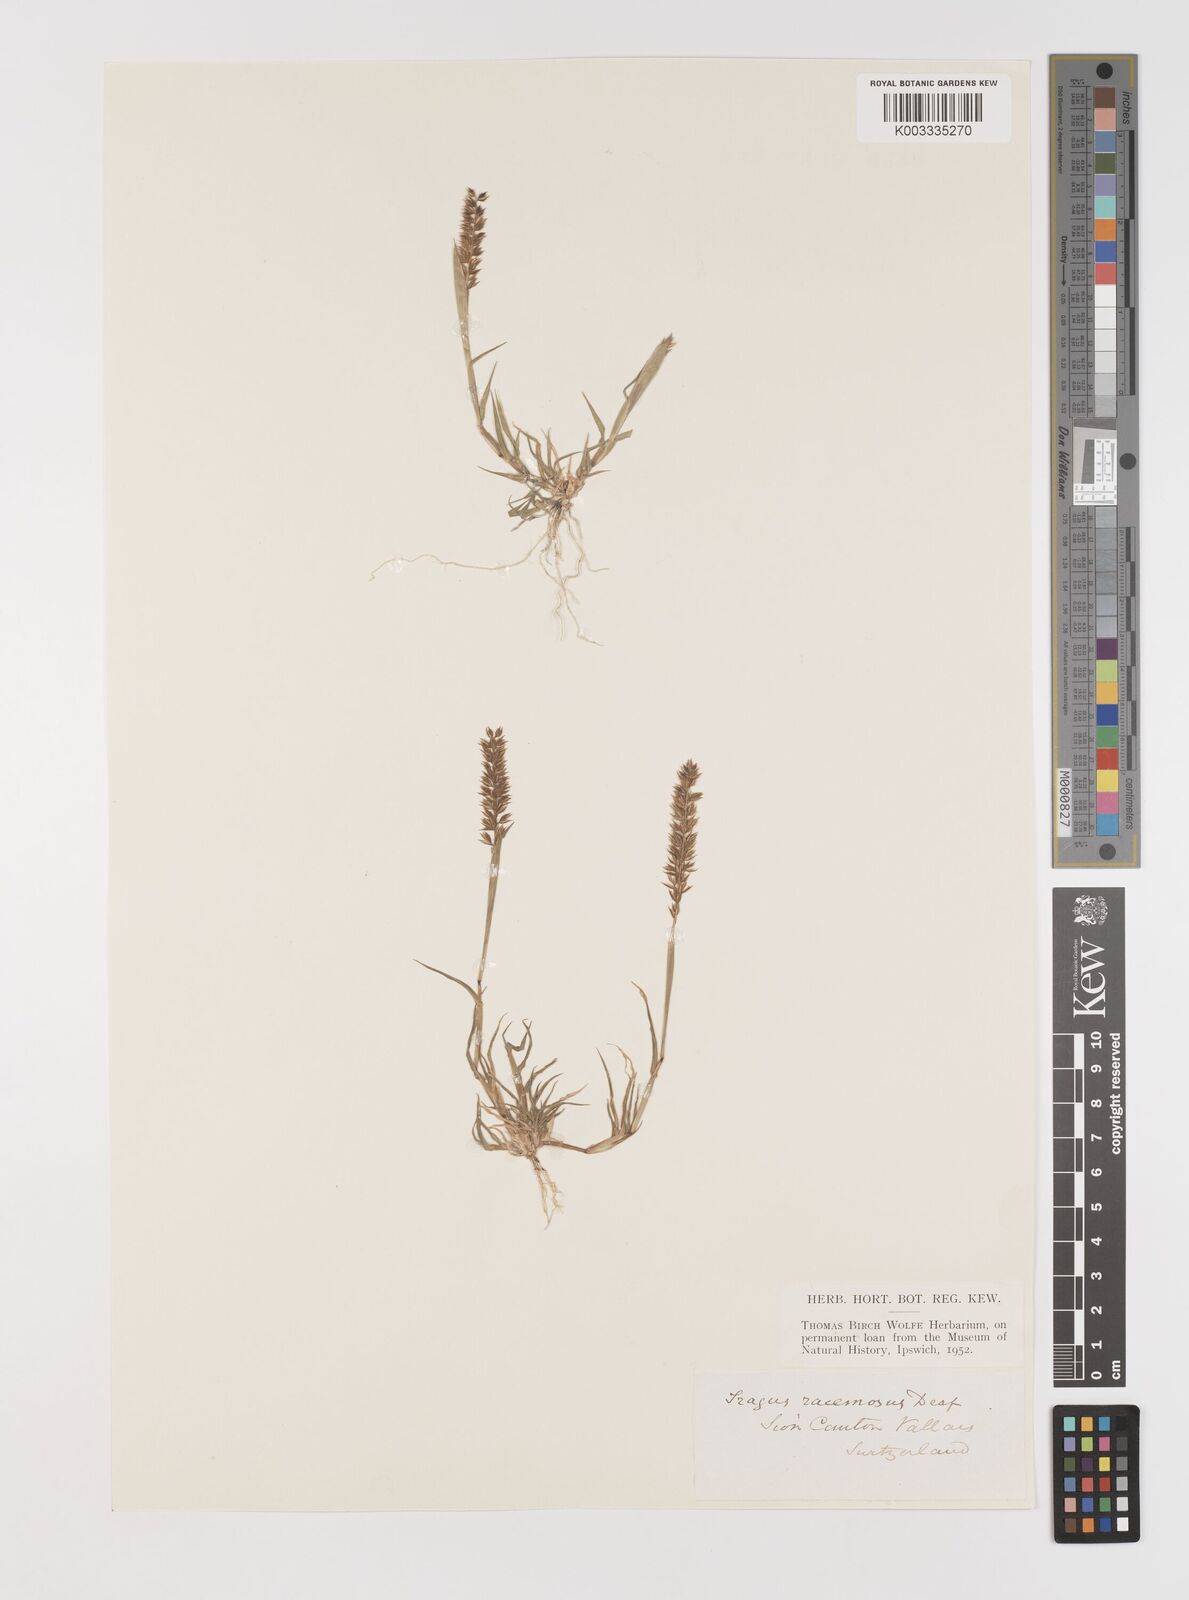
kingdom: Plantae
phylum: Tracheophyta
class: Liliopsida
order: Poales
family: Poaceae
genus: Tragus
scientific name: Tragus racemosus
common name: European bur-grass
